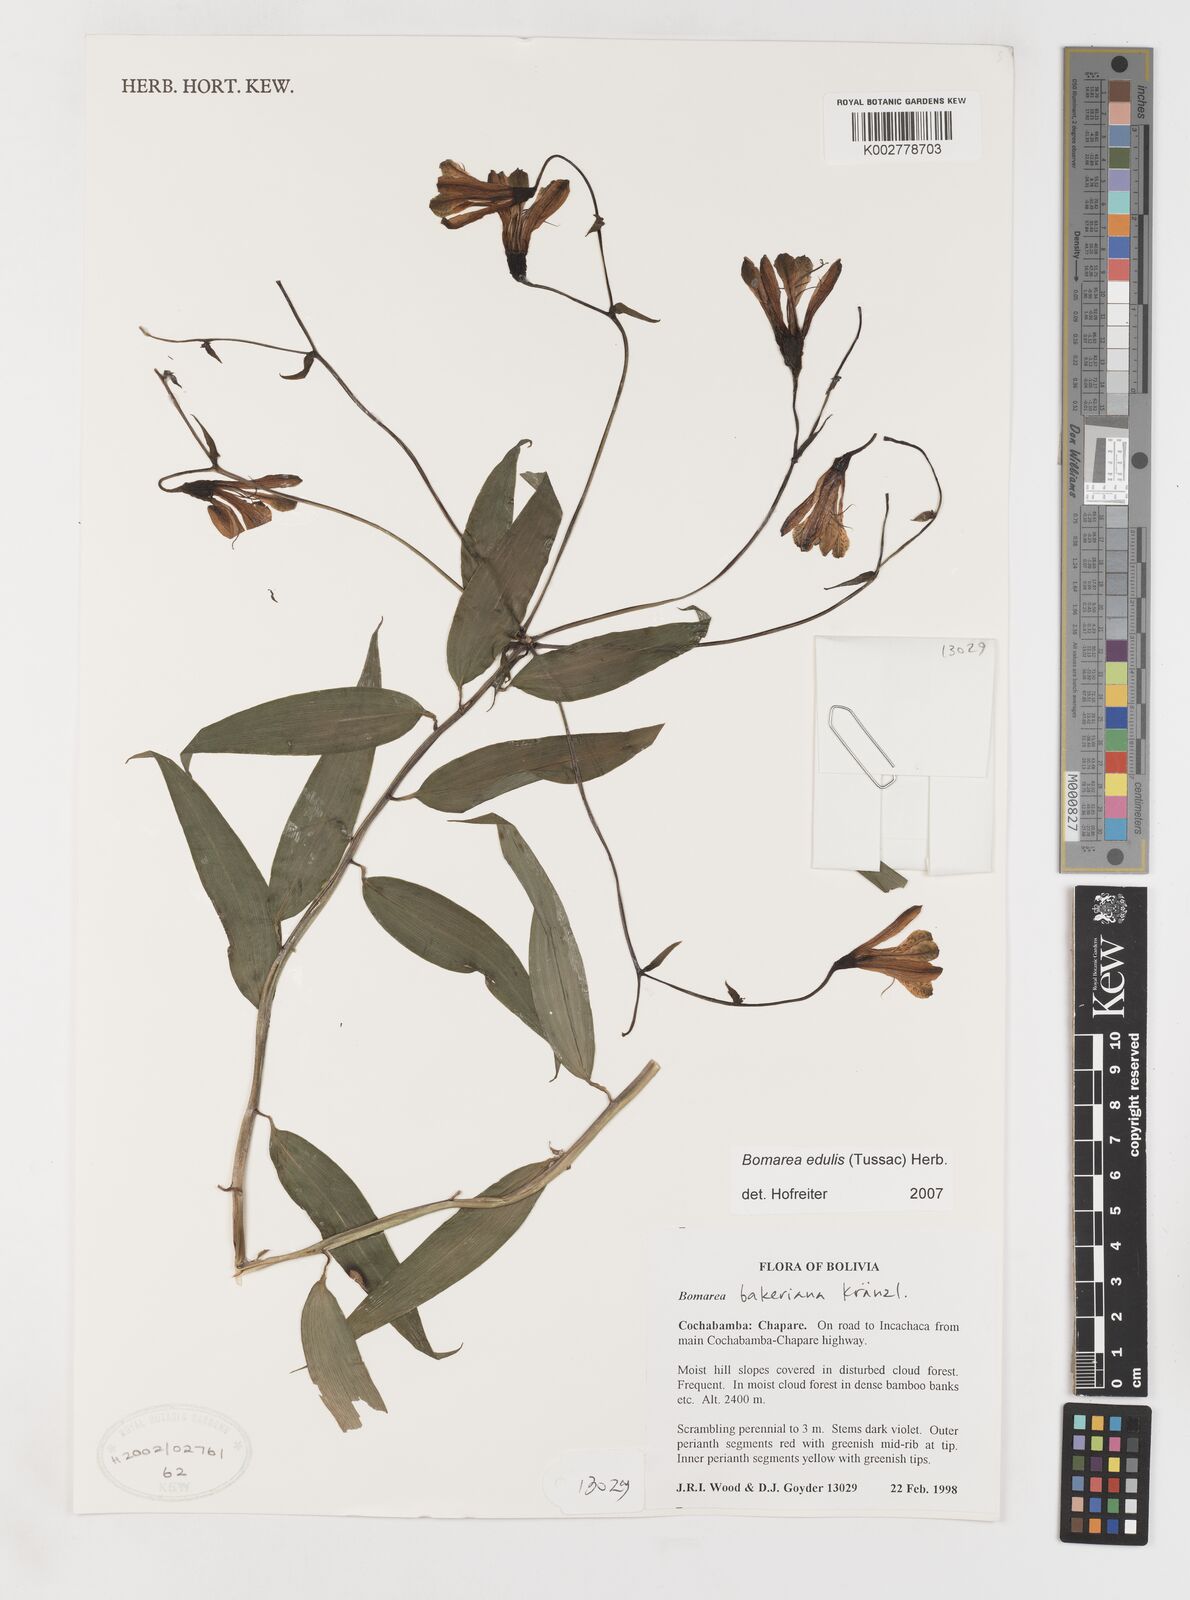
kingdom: Plantae
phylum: Tracheophyta
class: Liliopsida
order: Liliales
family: Alstroemeriaceae
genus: Bomarea
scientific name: Bomarea edulis
